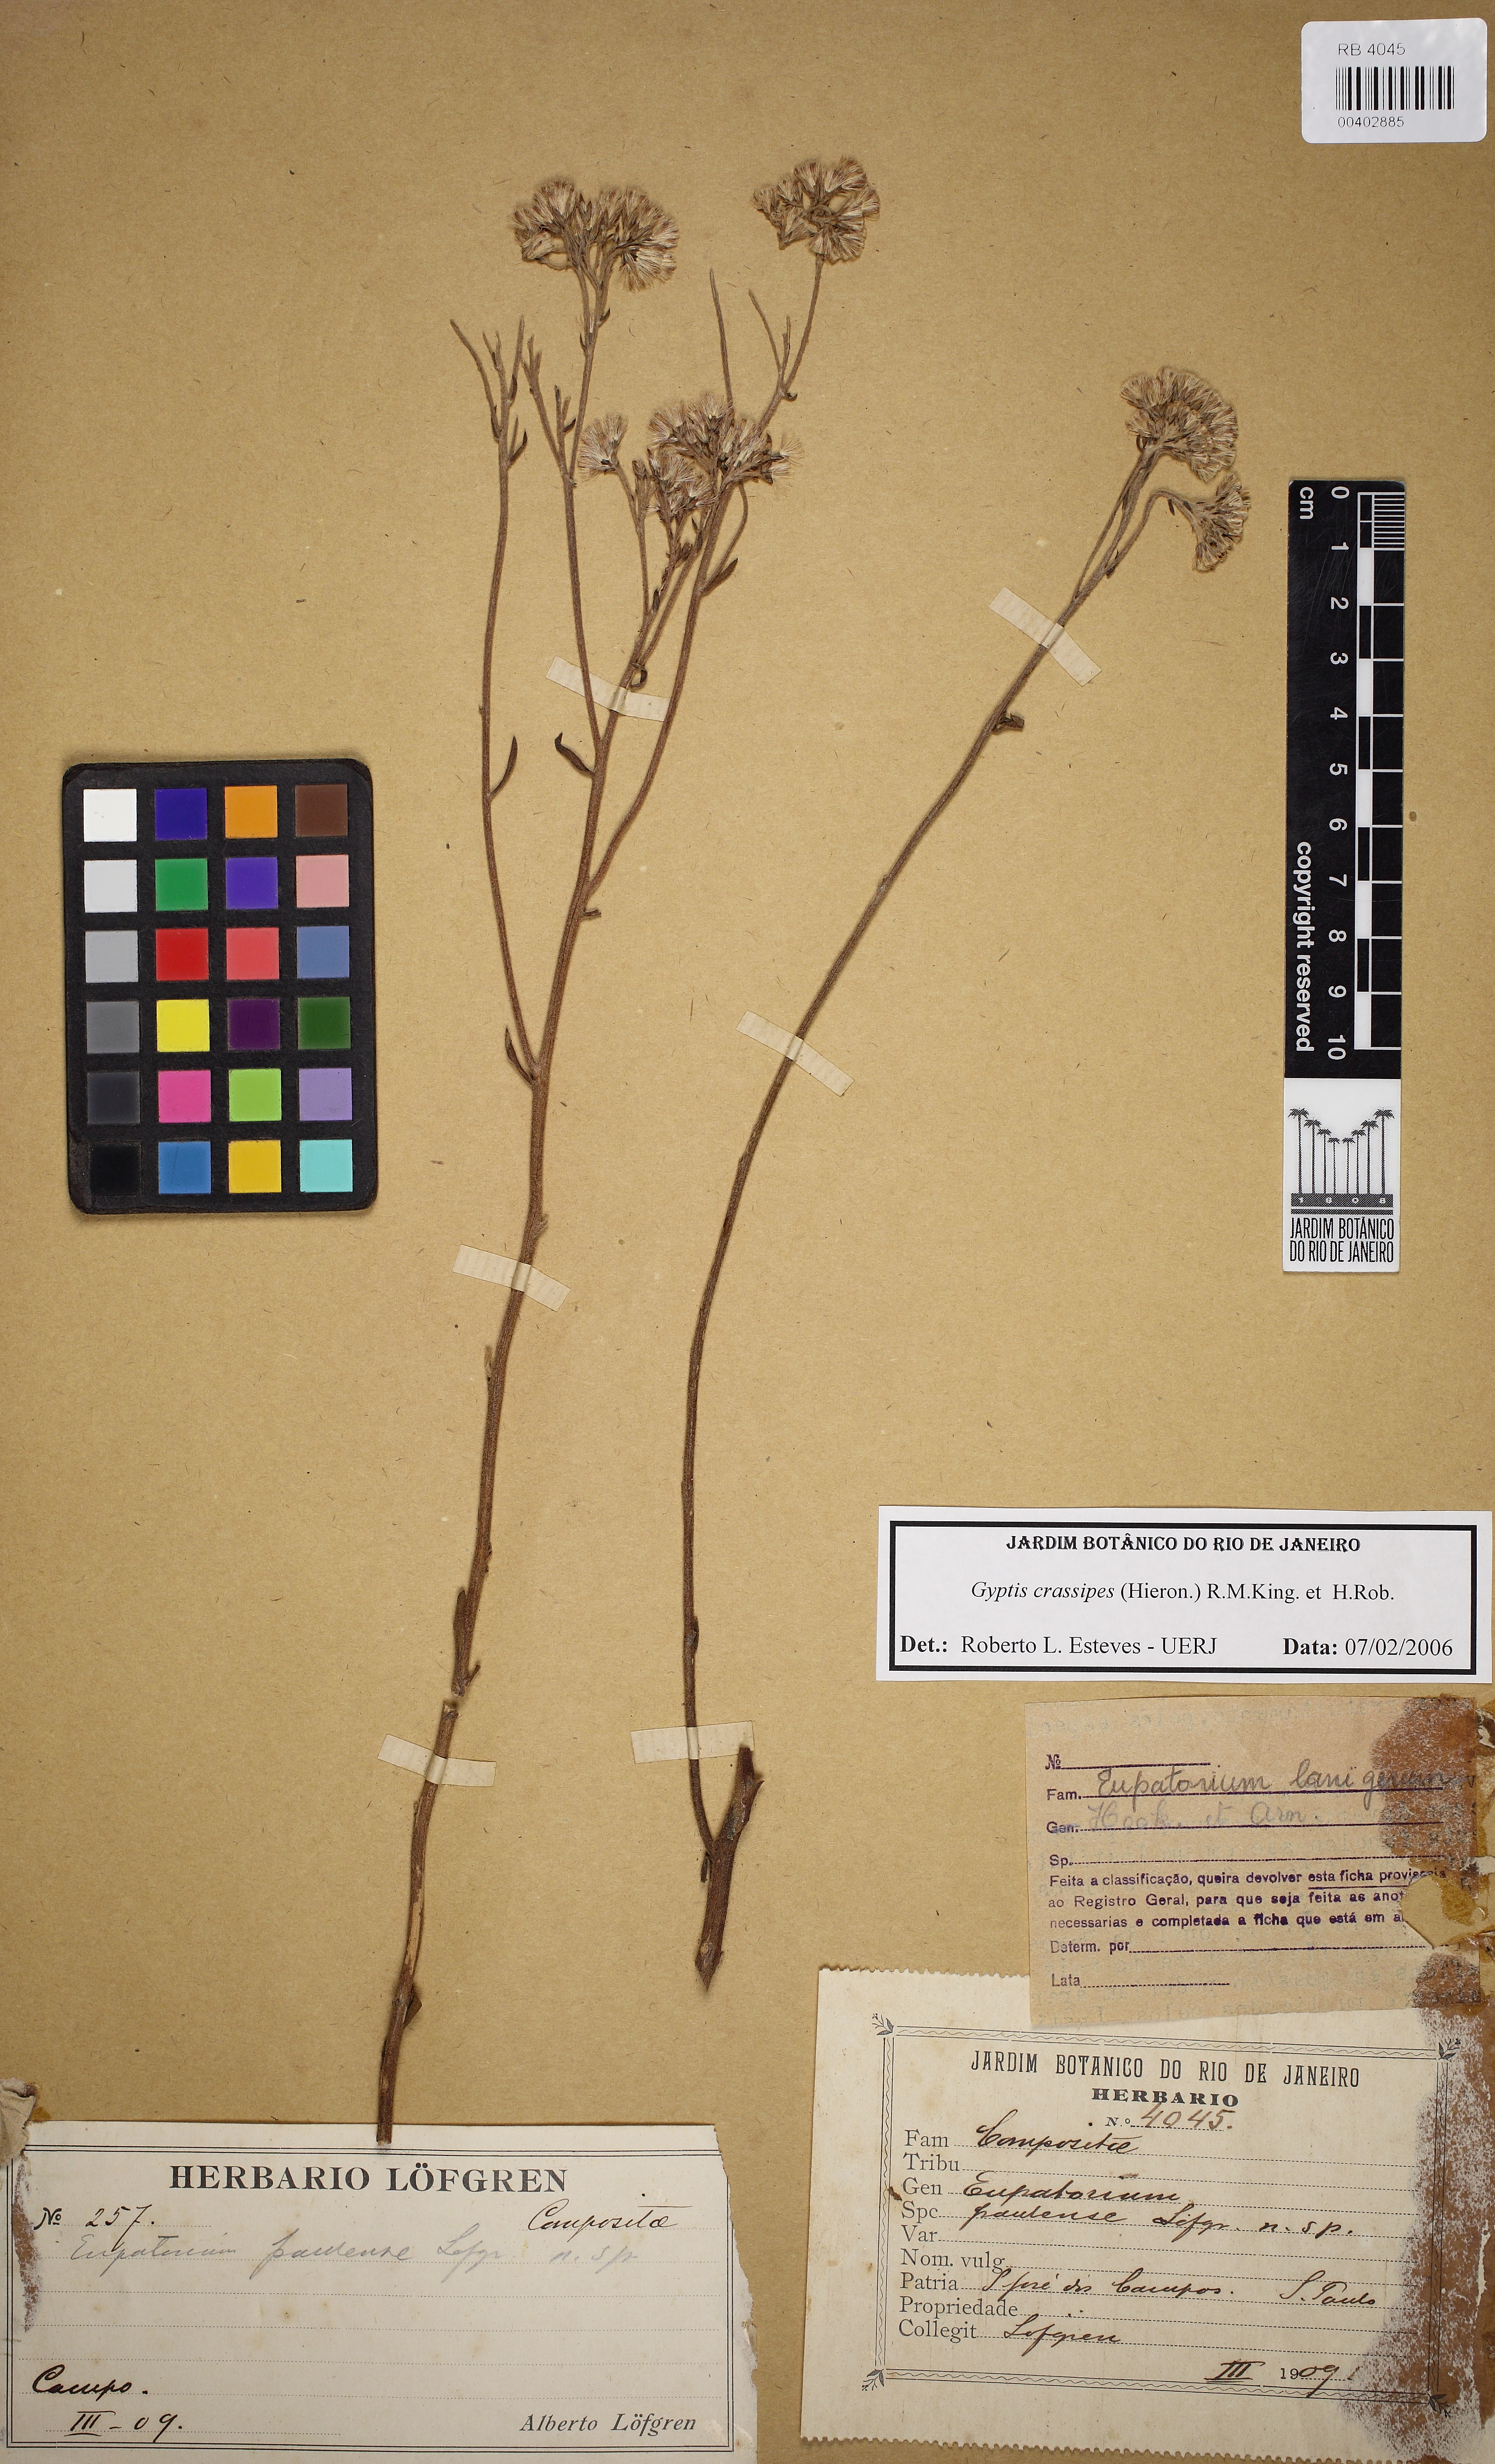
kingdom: Plantae
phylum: Tracheophyta
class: Magnoliopsida
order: Asterales
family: Asteraceae
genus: Gyptis
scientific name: Gyptis crassipes
